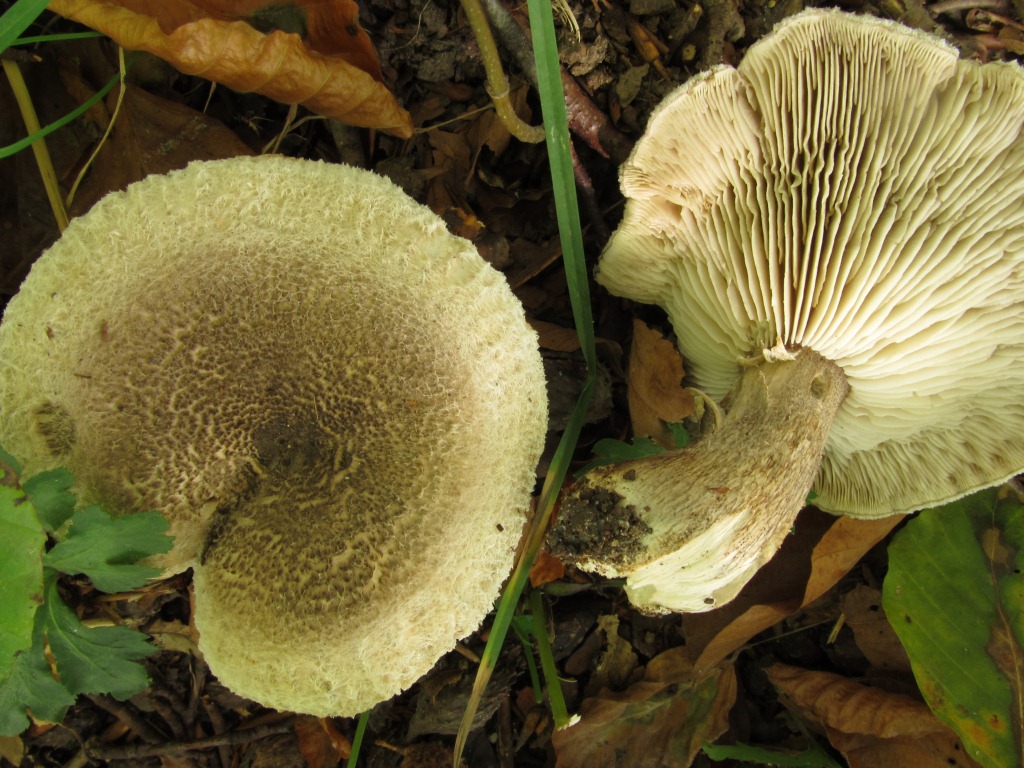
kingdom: Fungi
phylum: Basidiomycota
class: Agaricomycetes
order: Agaricales
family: Tricholomataceae
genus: Tricholoma
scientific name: Tricholoma atrosquamosum
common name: sortskællet ridderhat
